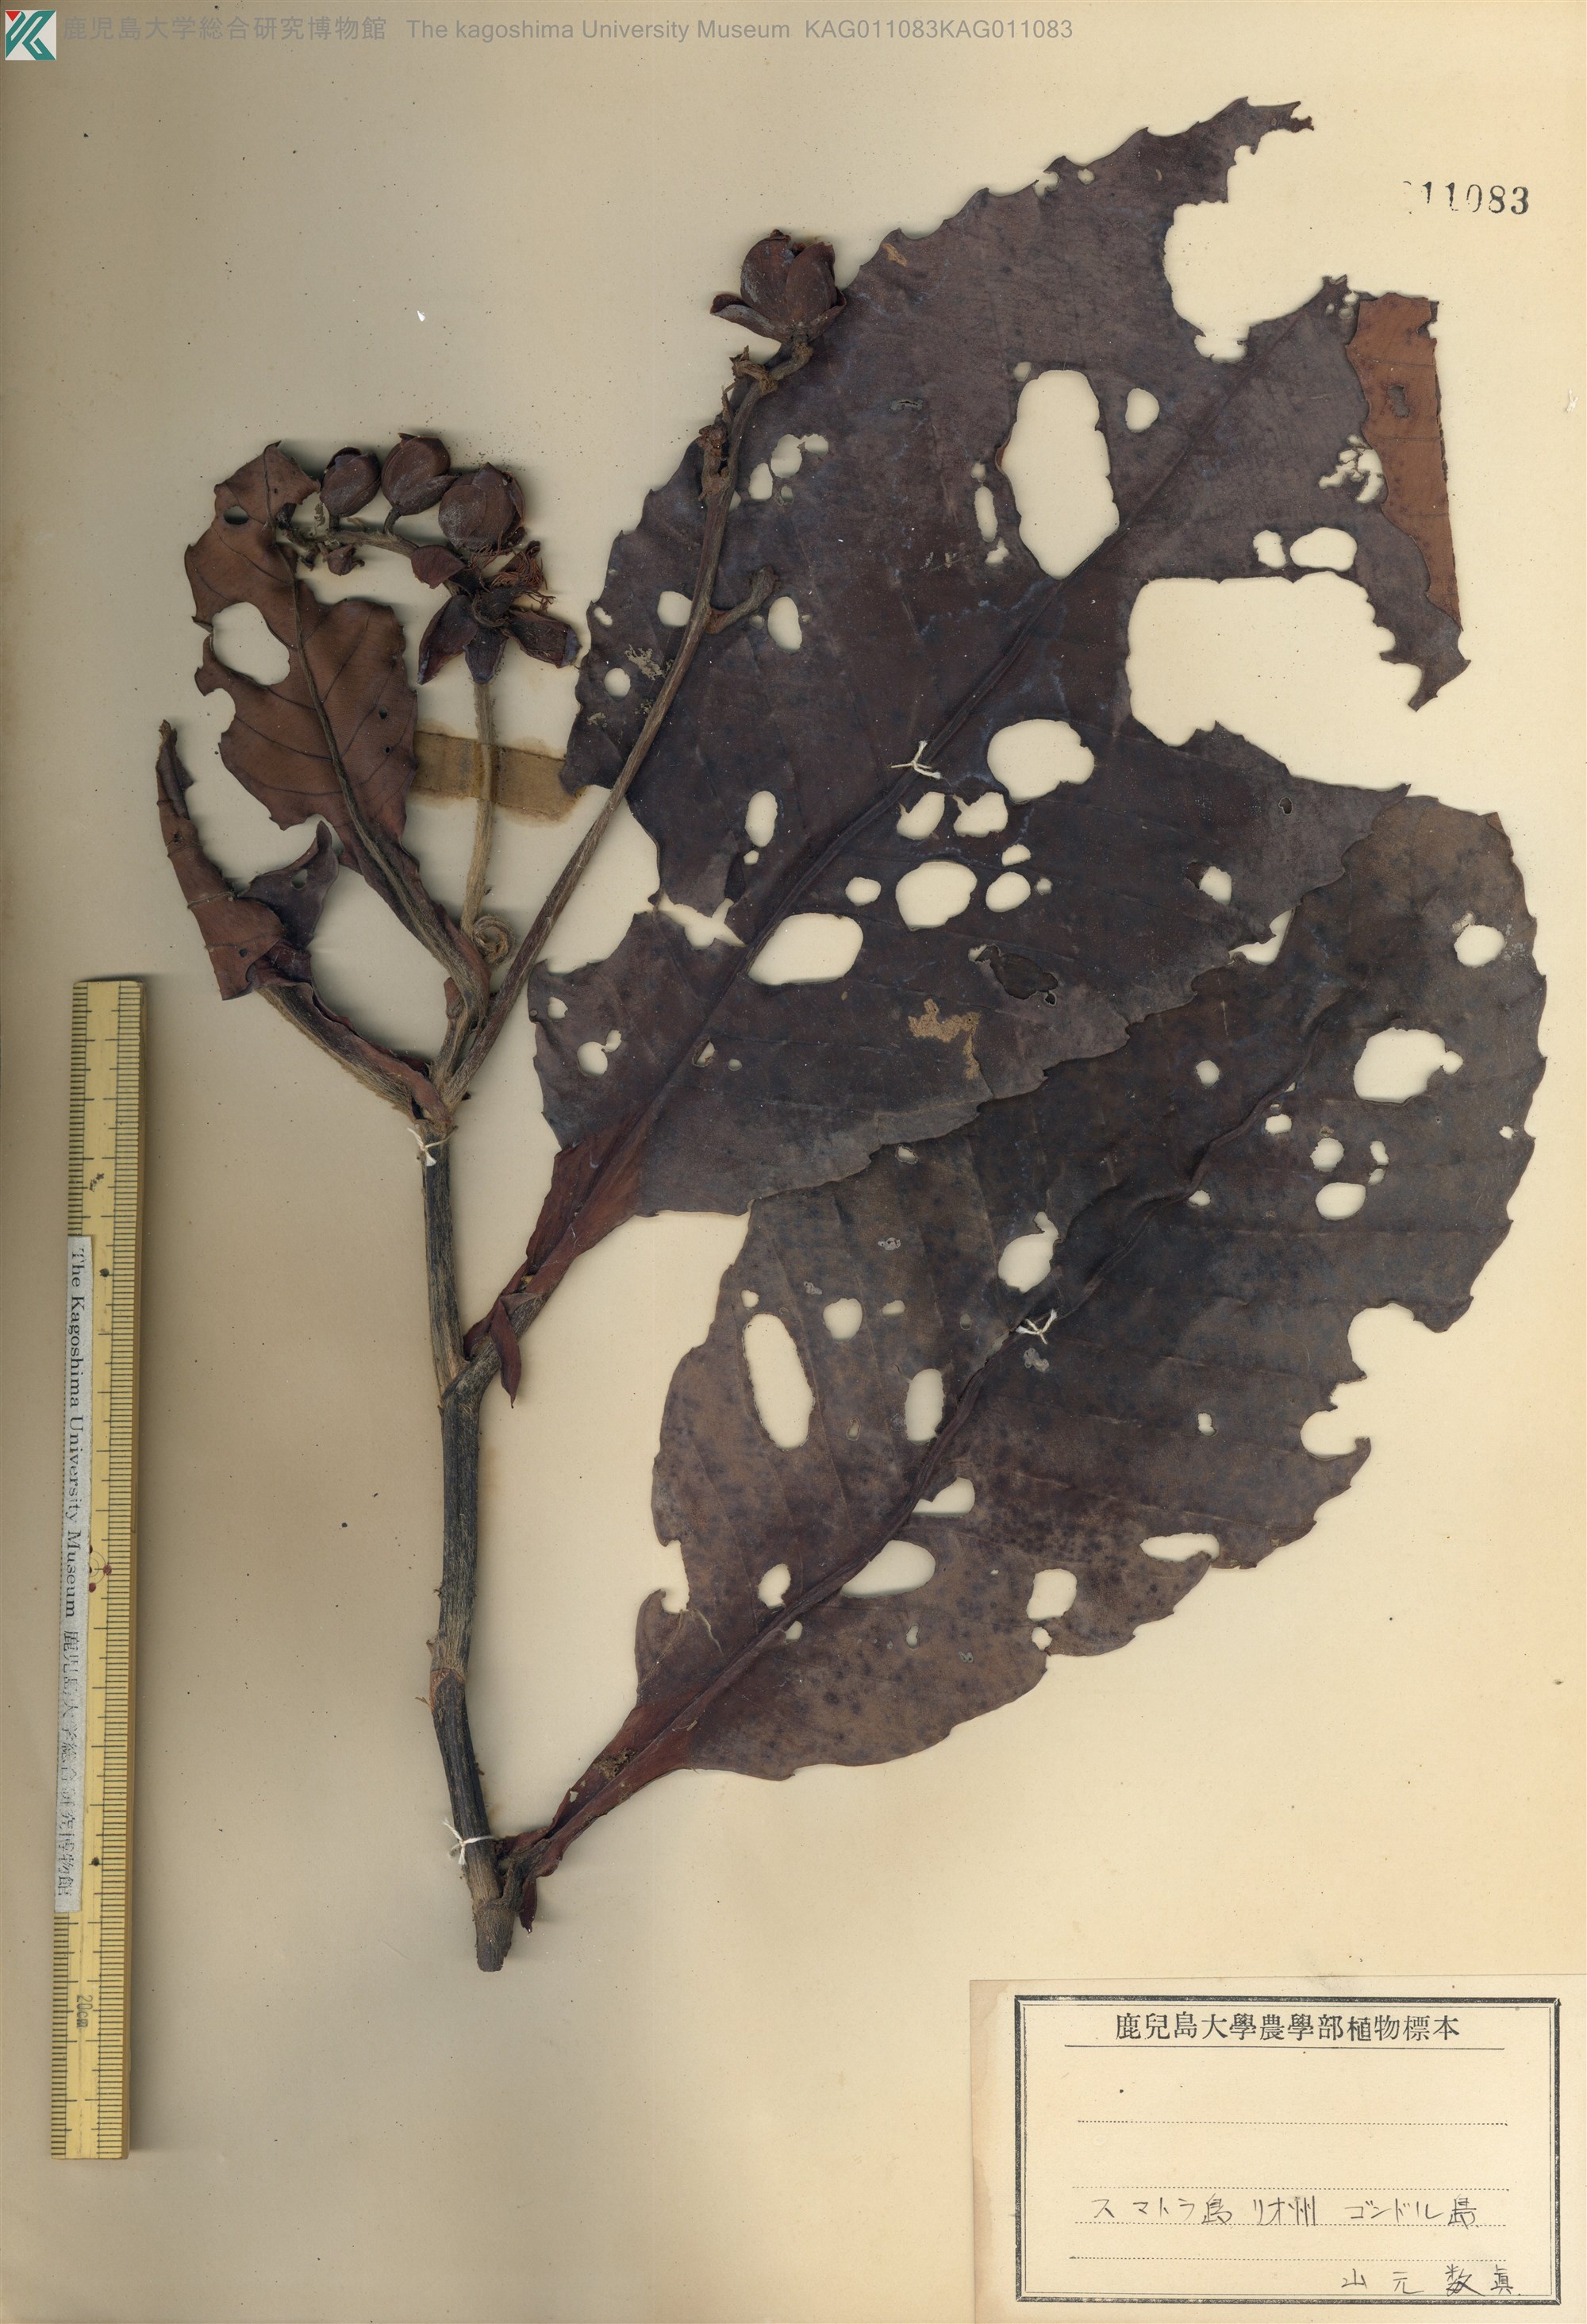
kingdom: Plantae
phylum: Tracheophyta
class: Magnoliopsida
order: Dilleniales
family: Dilleniaceae
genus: Dillenia
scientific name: Dillenia
